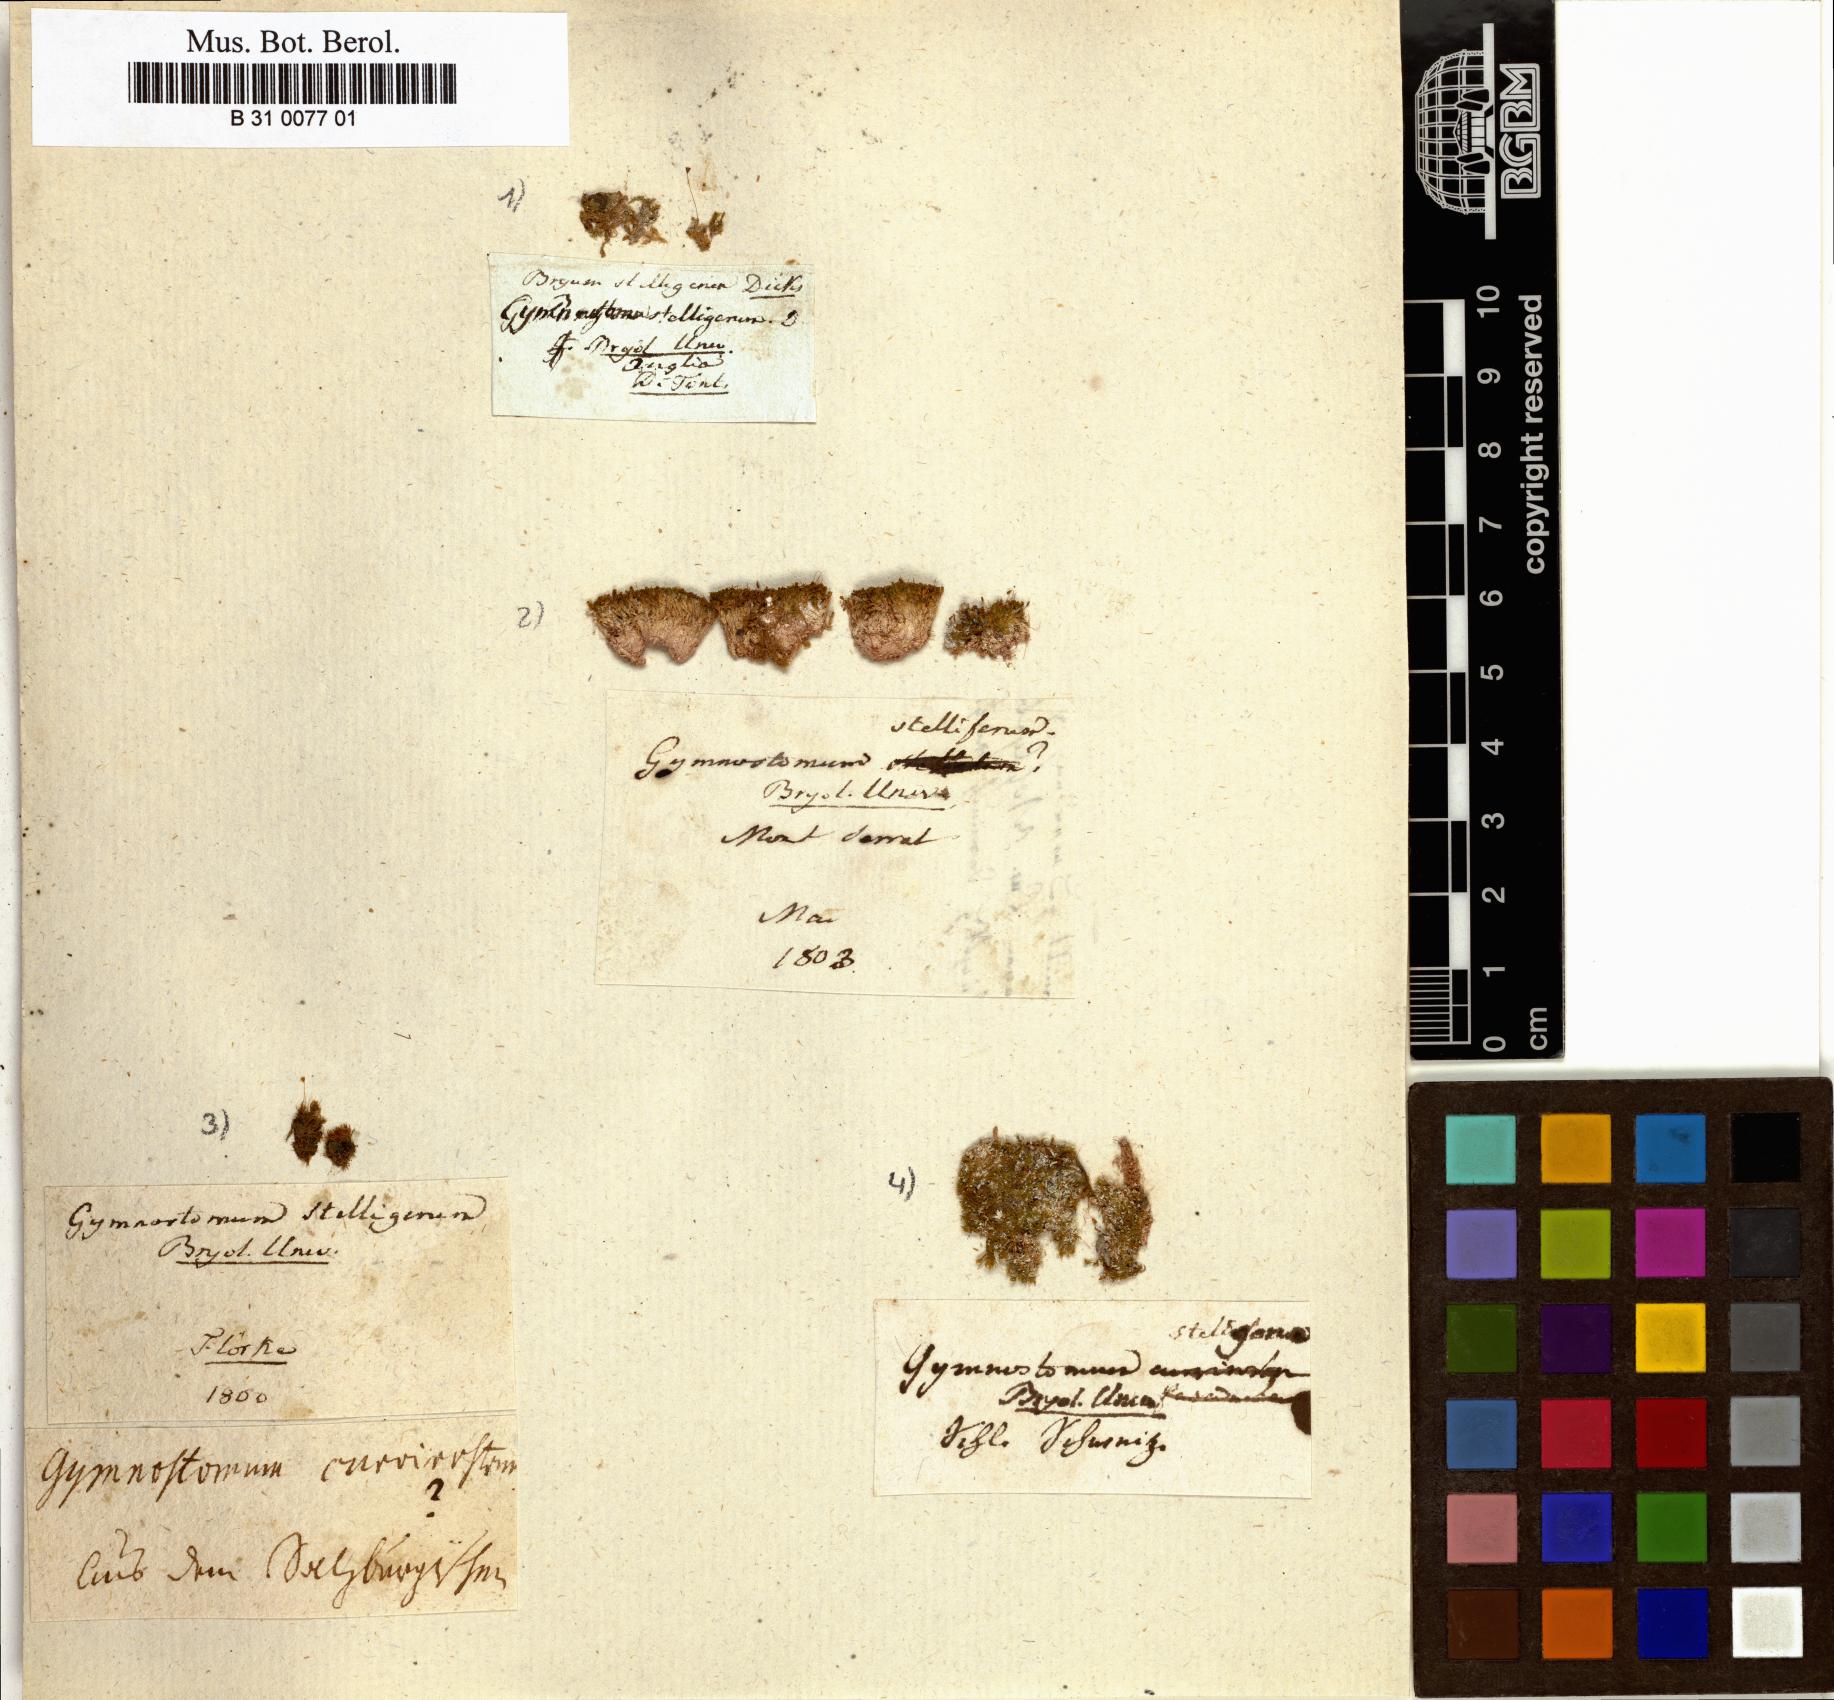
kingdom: Plantae
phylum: Bryophyta
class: Bryopsida
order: Pottiales
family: Pottiaceae
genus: Hymenostylium
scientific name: Hymenostylium recurvirostrum
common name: Hook-beak tufa-moss
